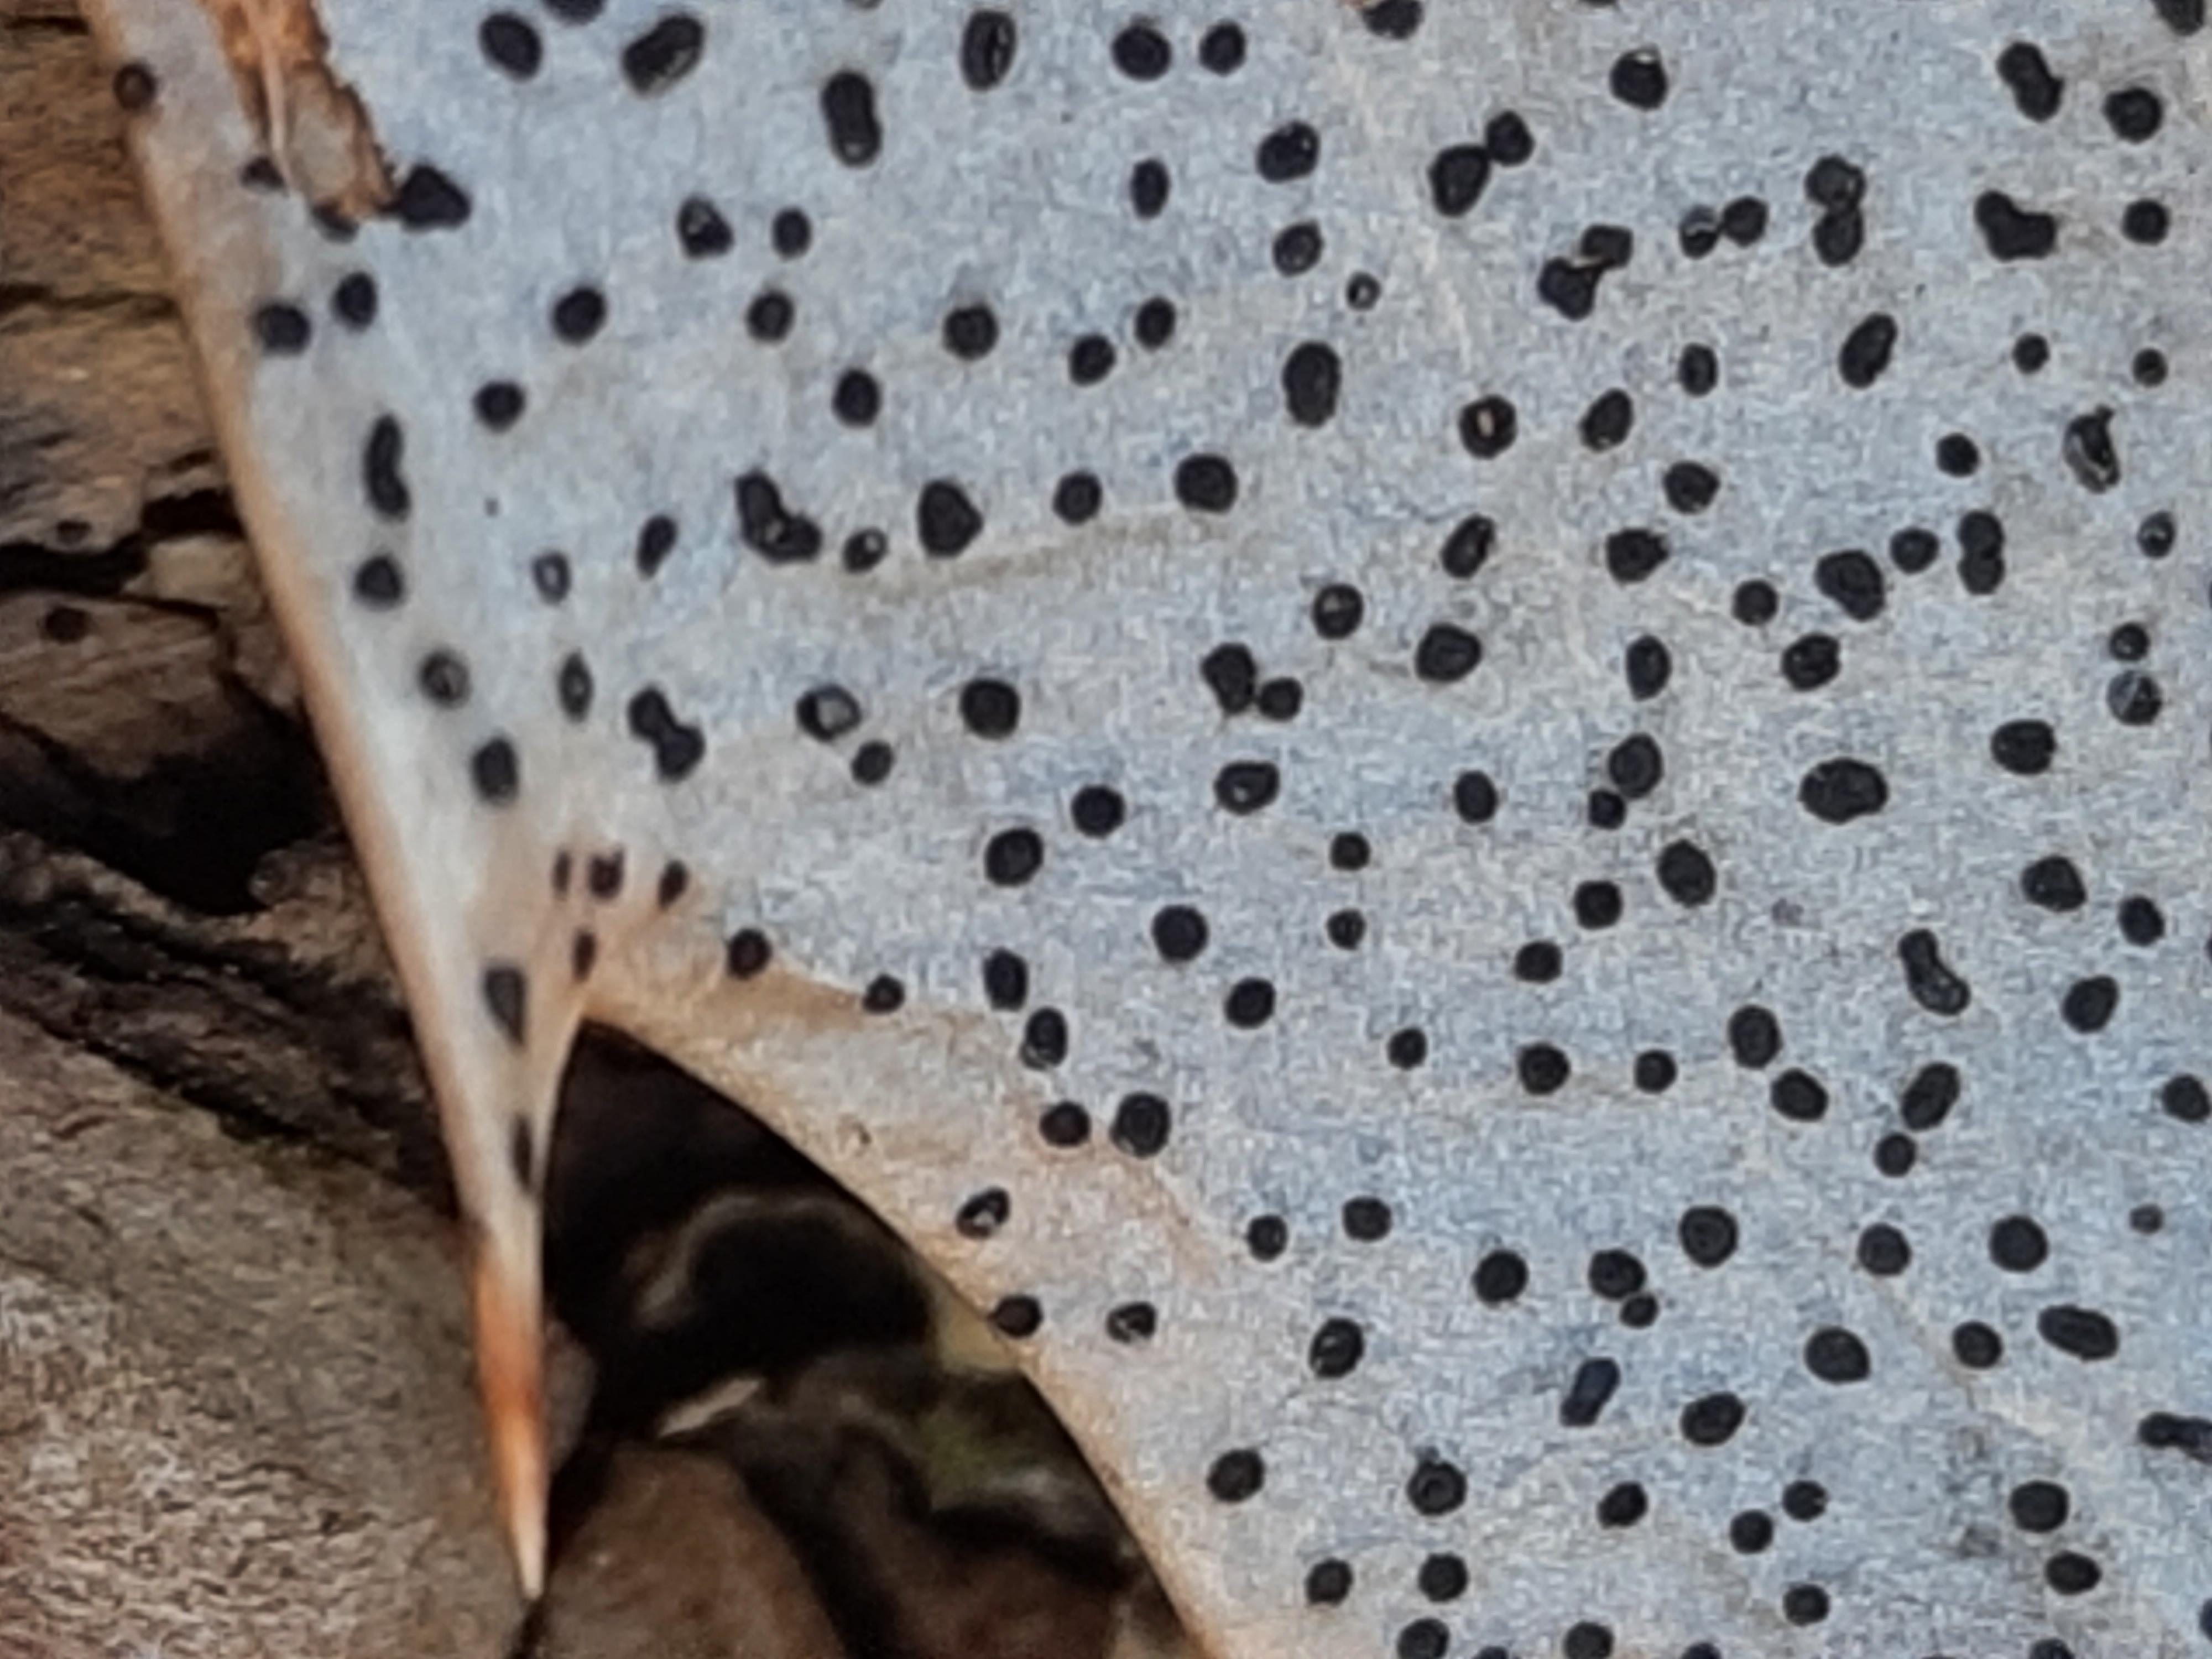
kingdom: Fungi
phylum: Ascomycota
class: Leotiomycetes
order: Helotiales
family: Cenangiaceae
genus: Trochila
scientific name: Trochila ilicina
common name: kristtorn-lågskive
